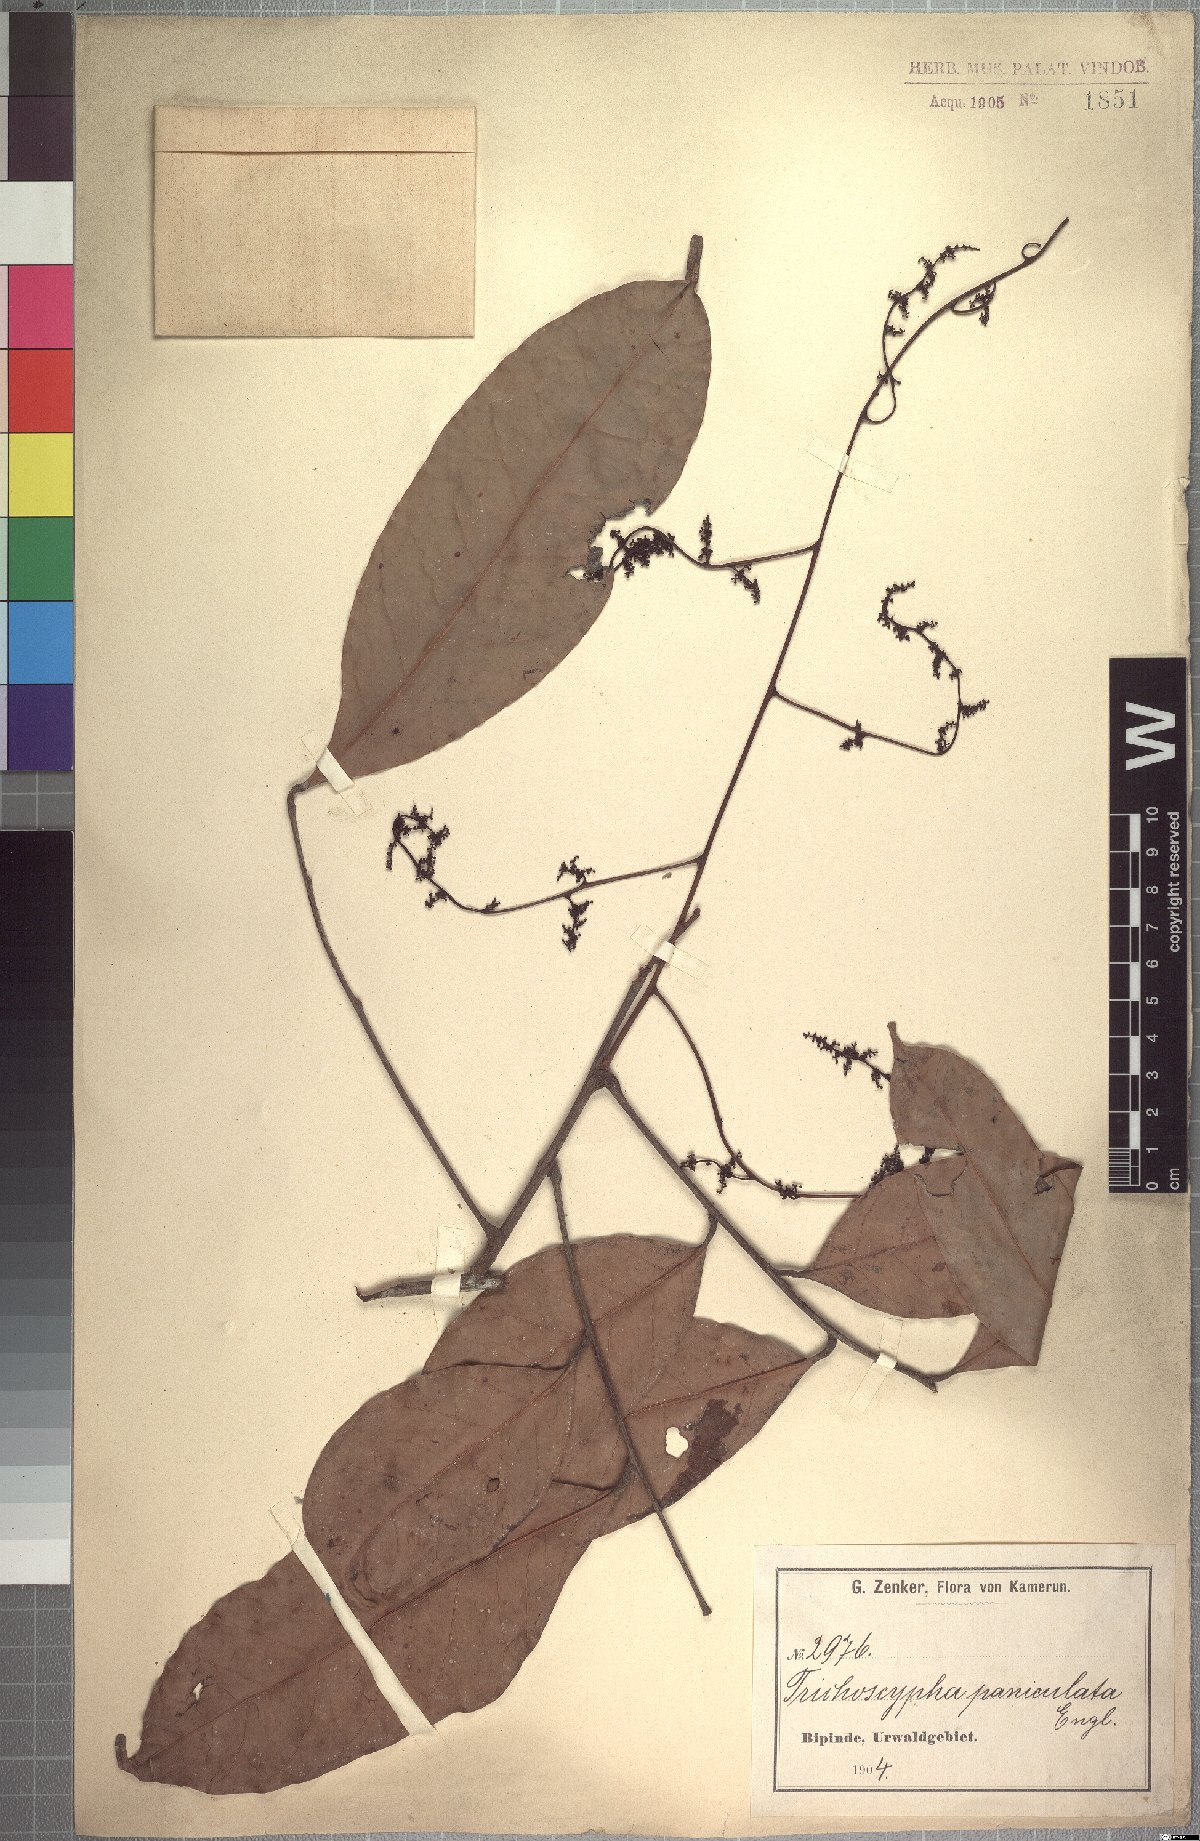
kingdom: Plantae
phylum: Tracheophyta
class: Magnoliopsida
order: Sapindales
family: Anacardiaceae
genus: Trichoscypha
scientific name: Trichoscypha patens
